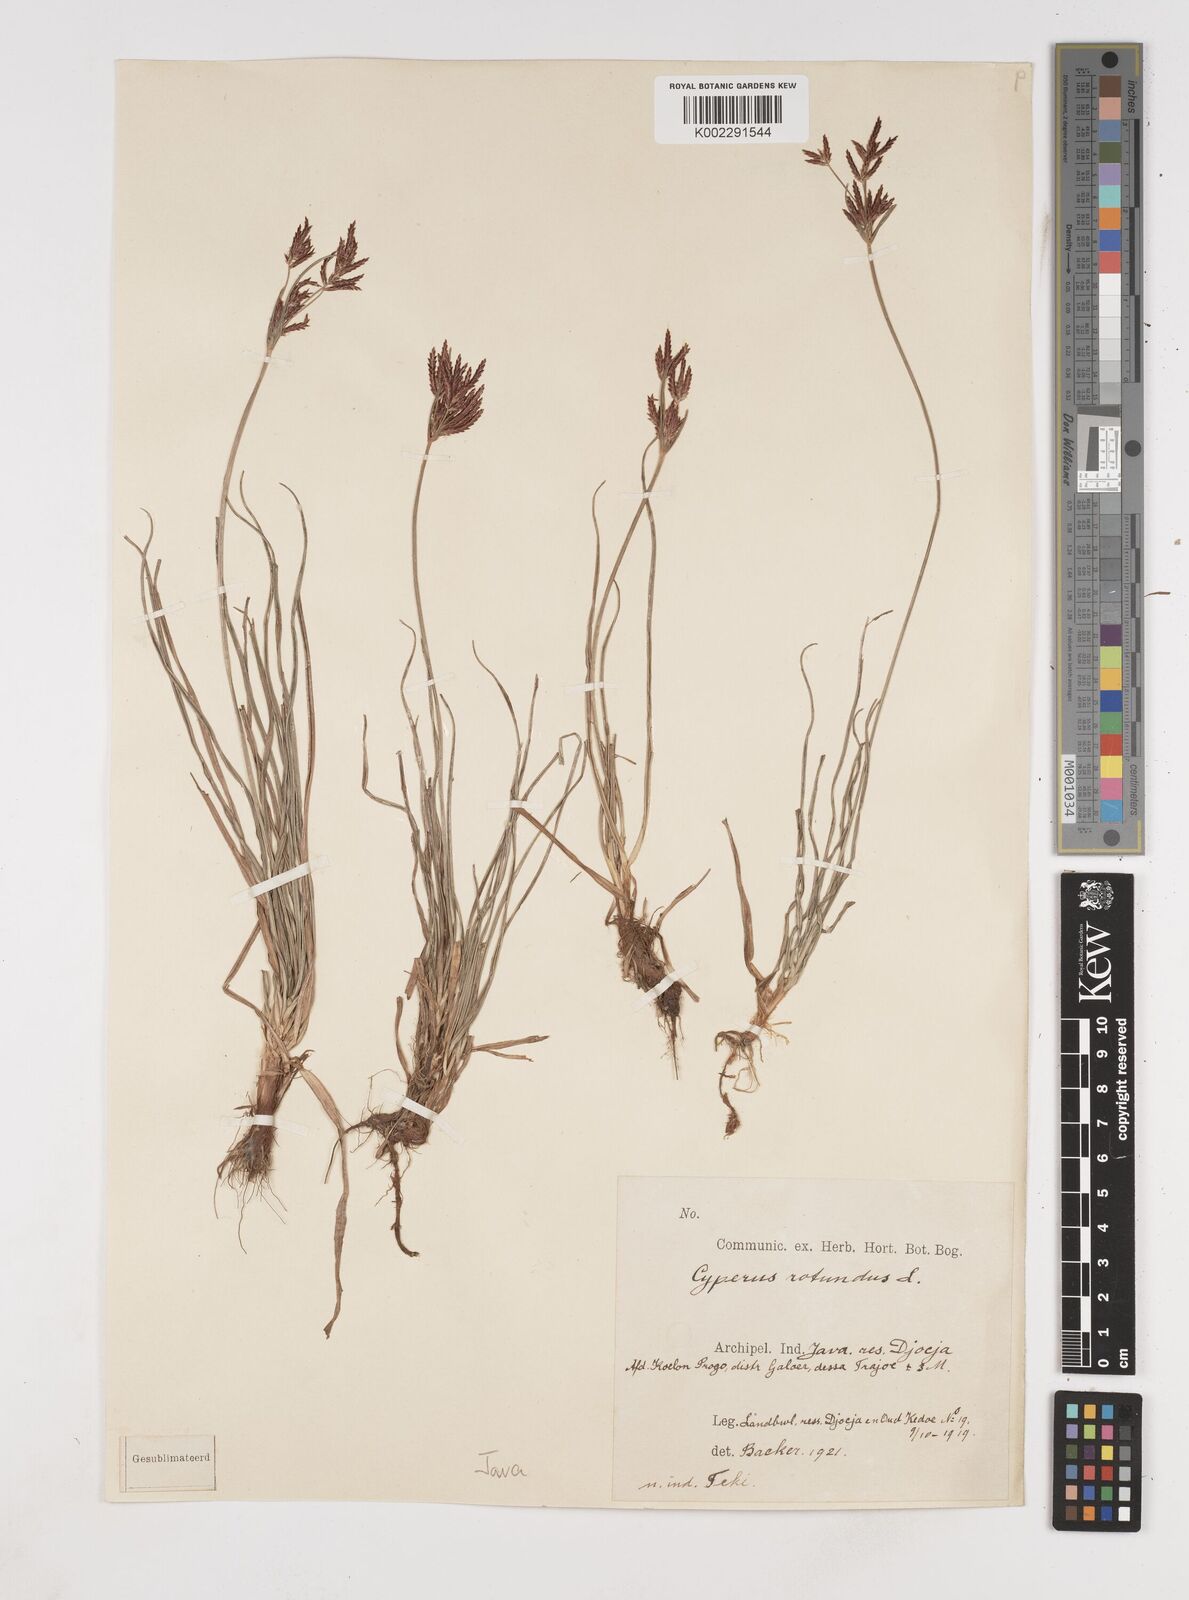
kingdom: Plantae
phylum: Tracheophyta
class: Liliopsida
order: Poales
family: Cyperaceae
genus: Cyperus
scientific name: Cyperus rotundus
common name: Nutgrass
